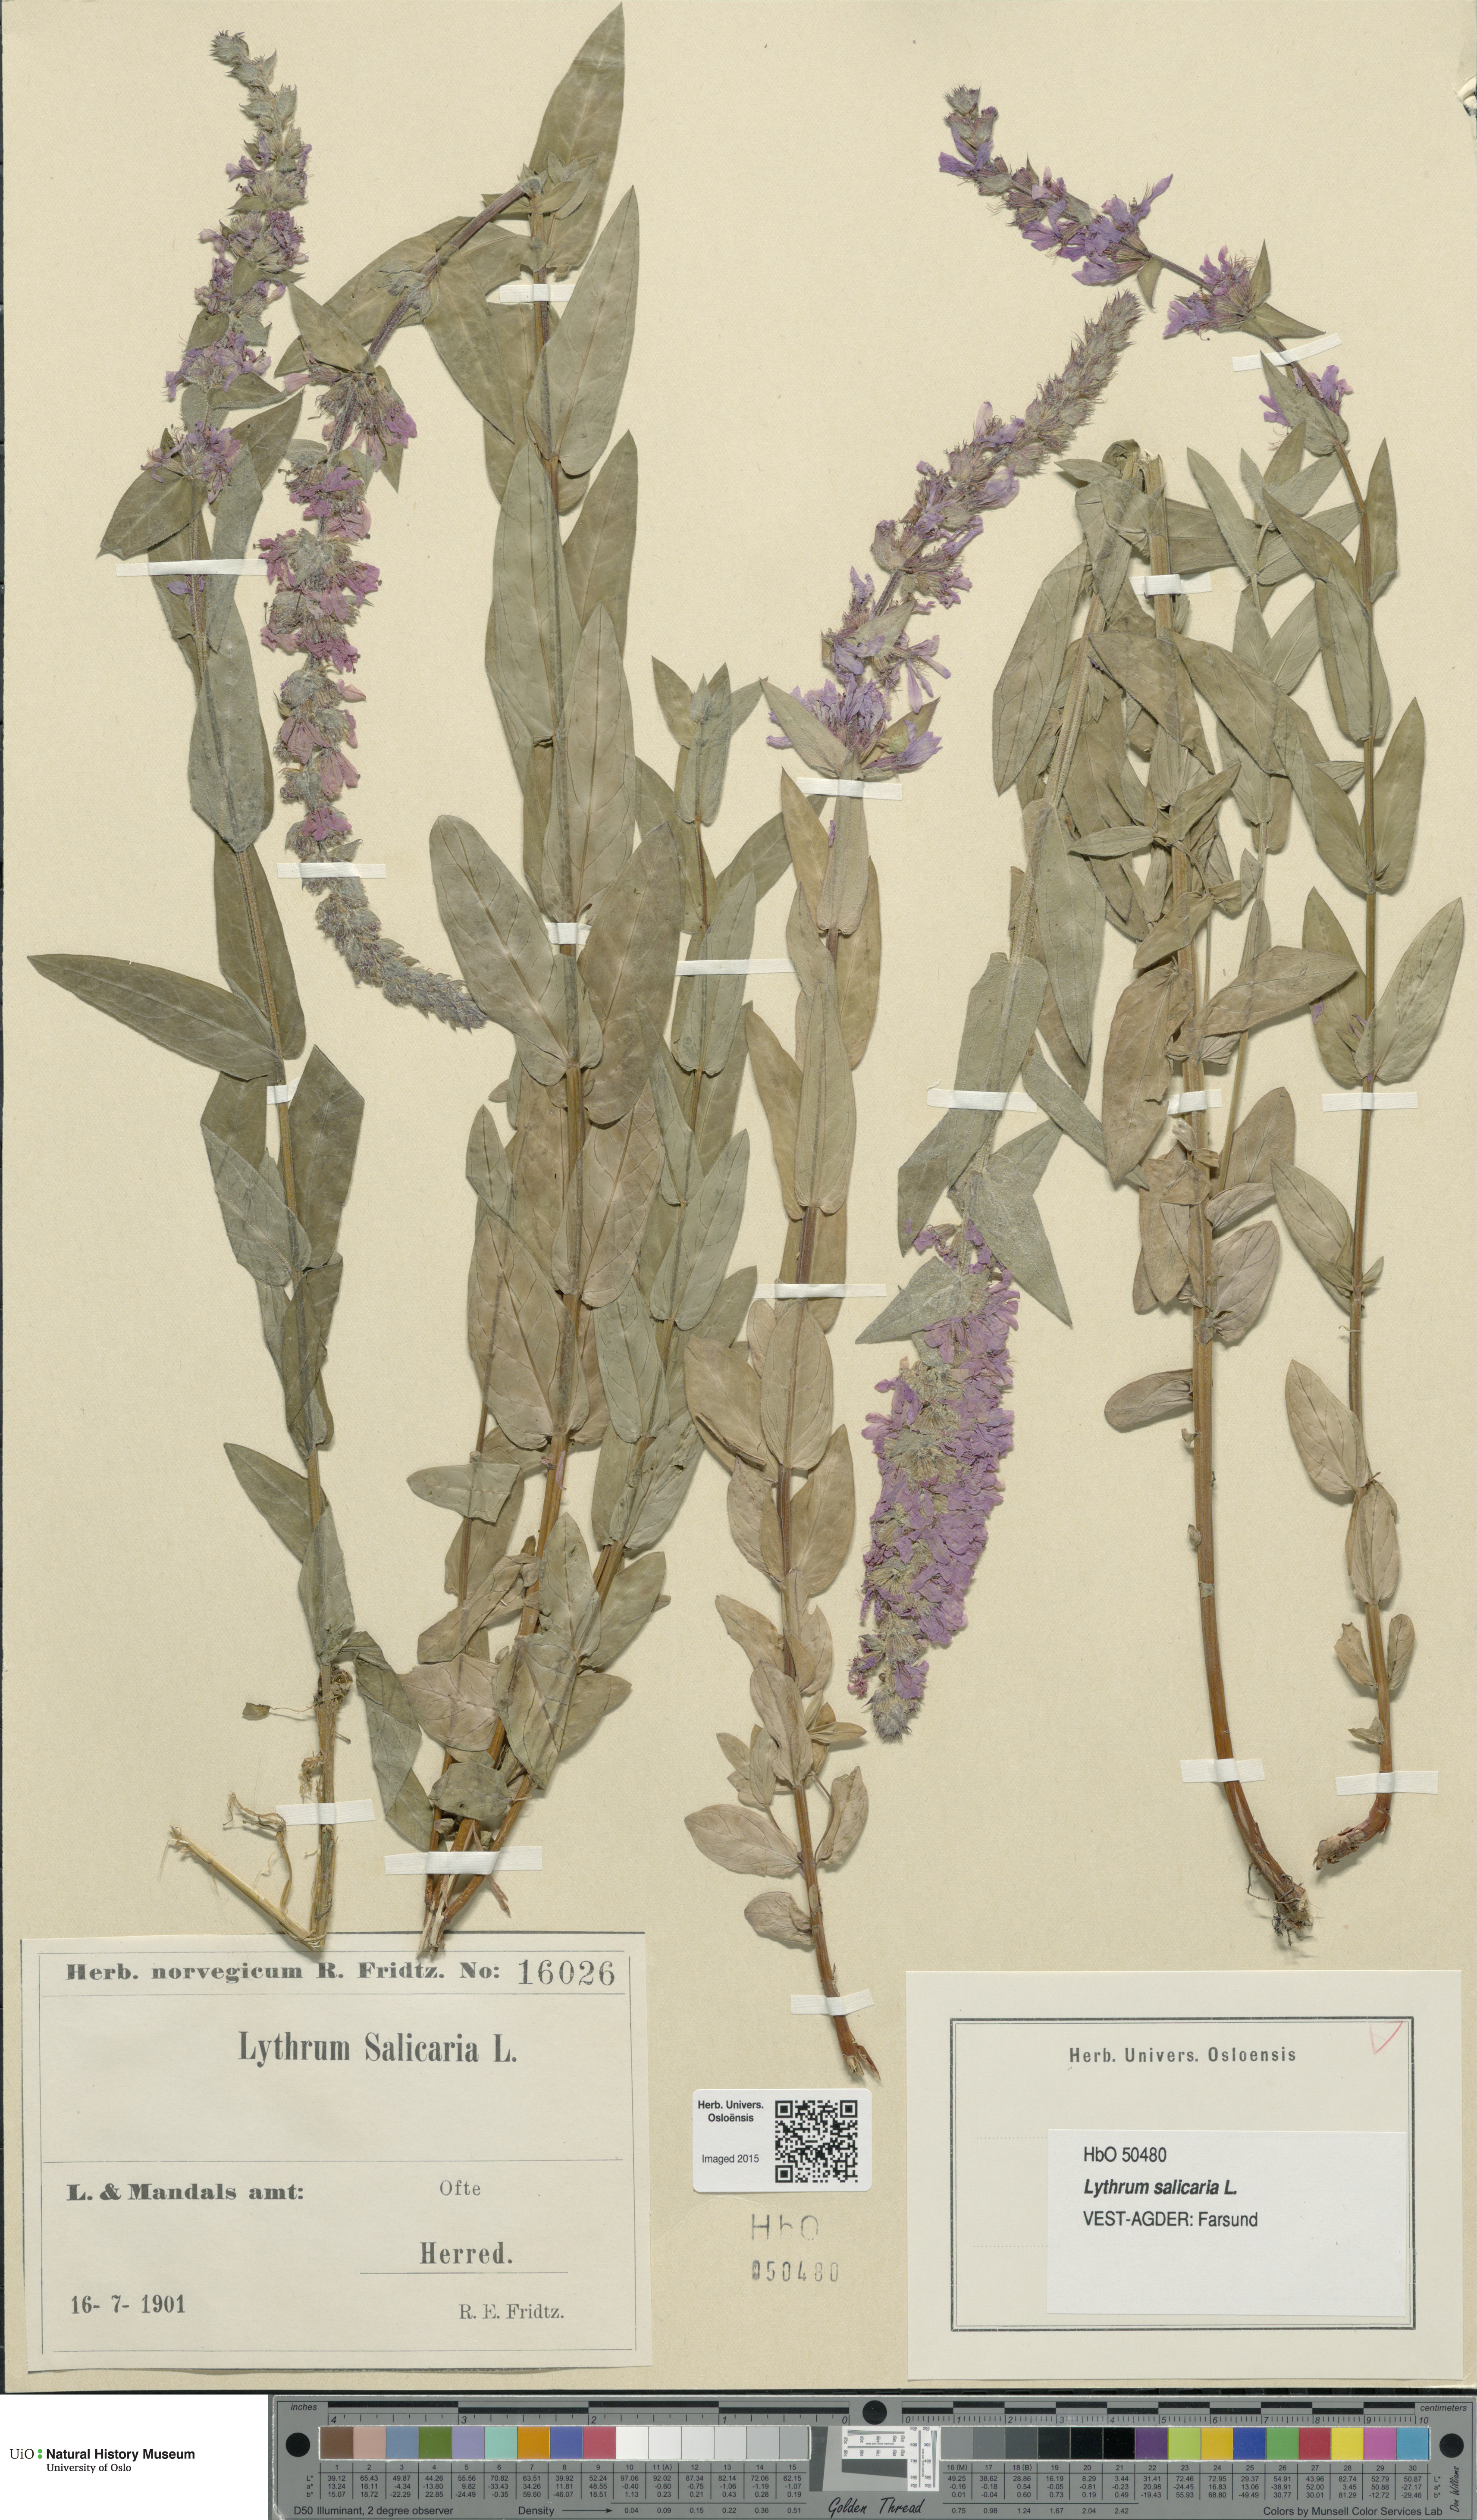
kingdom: Plantae
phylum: Tracheophyta
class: Magnoliopsida
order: Myrtales
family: Lythraceae
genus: Lythrum
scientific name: Lythrum salicaria
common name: Purple loosestrife
